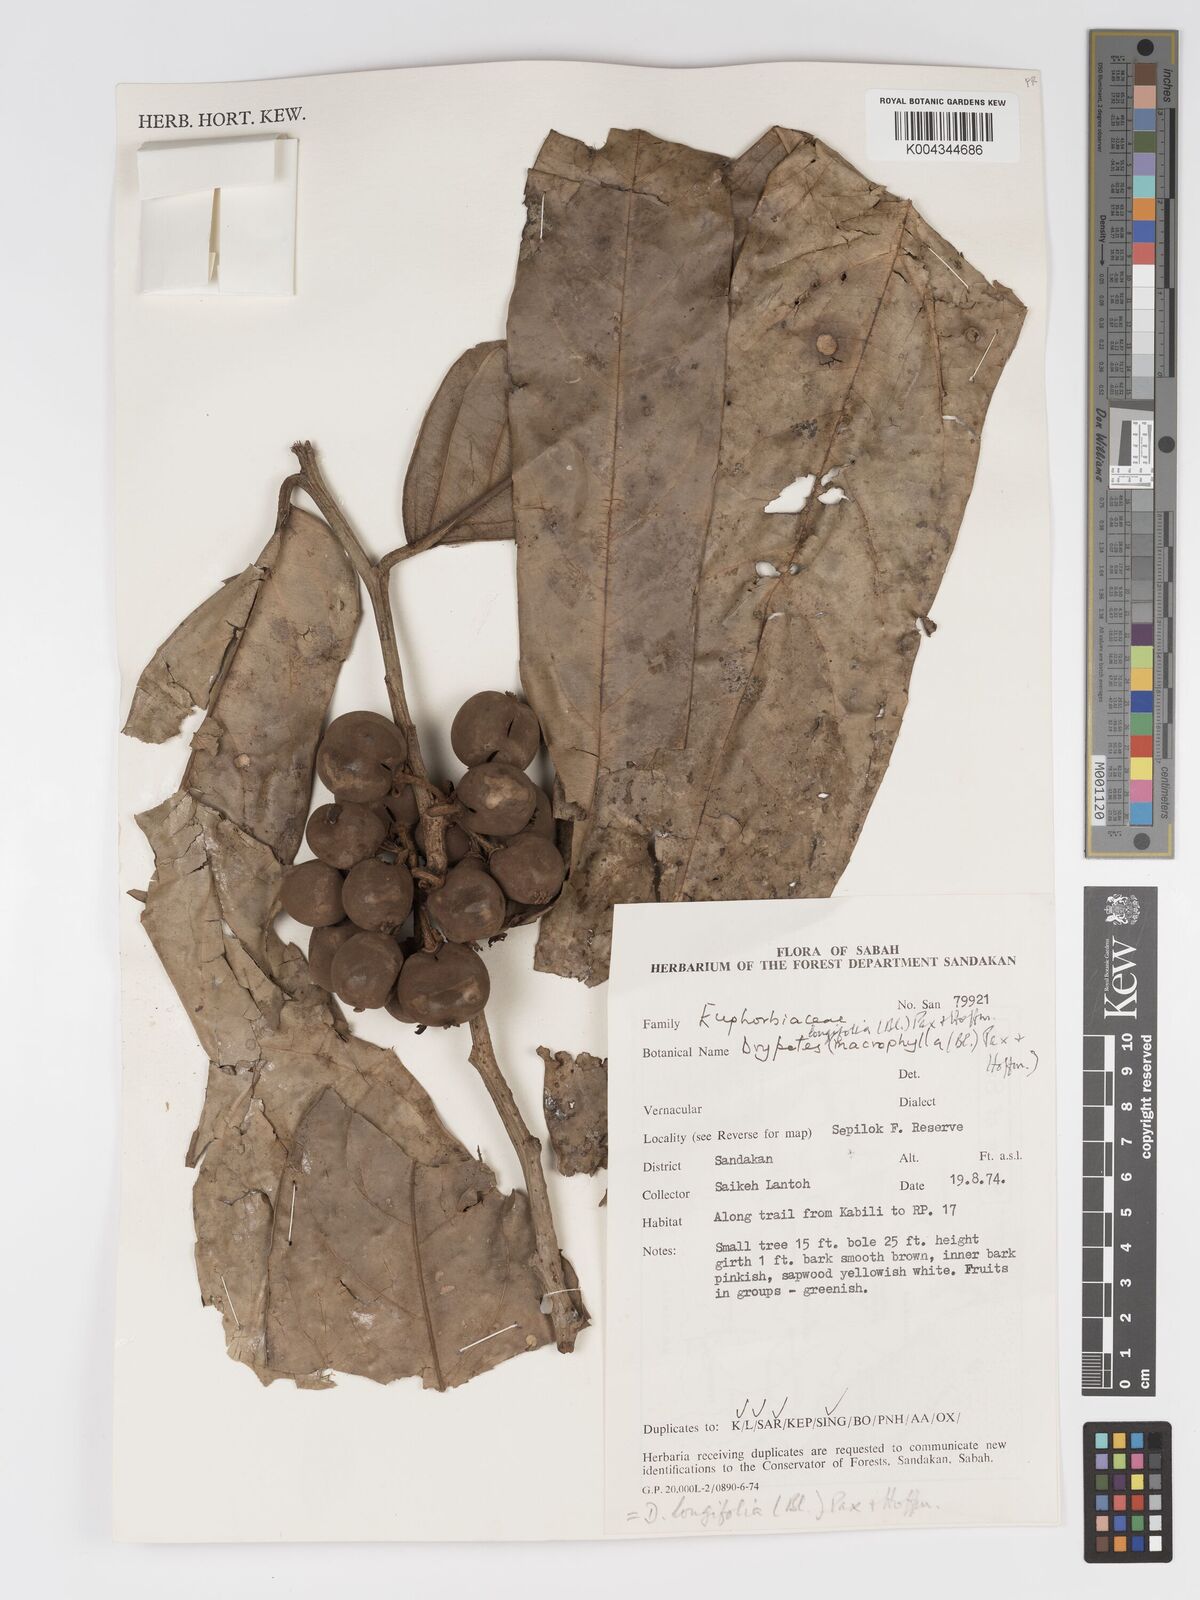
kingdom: Plantae
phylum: Tracheophyta
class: Magnoliopsida
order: Malpighiales
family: Putranjivaceae
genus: Drypetes
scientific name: Drypetes longifolia
